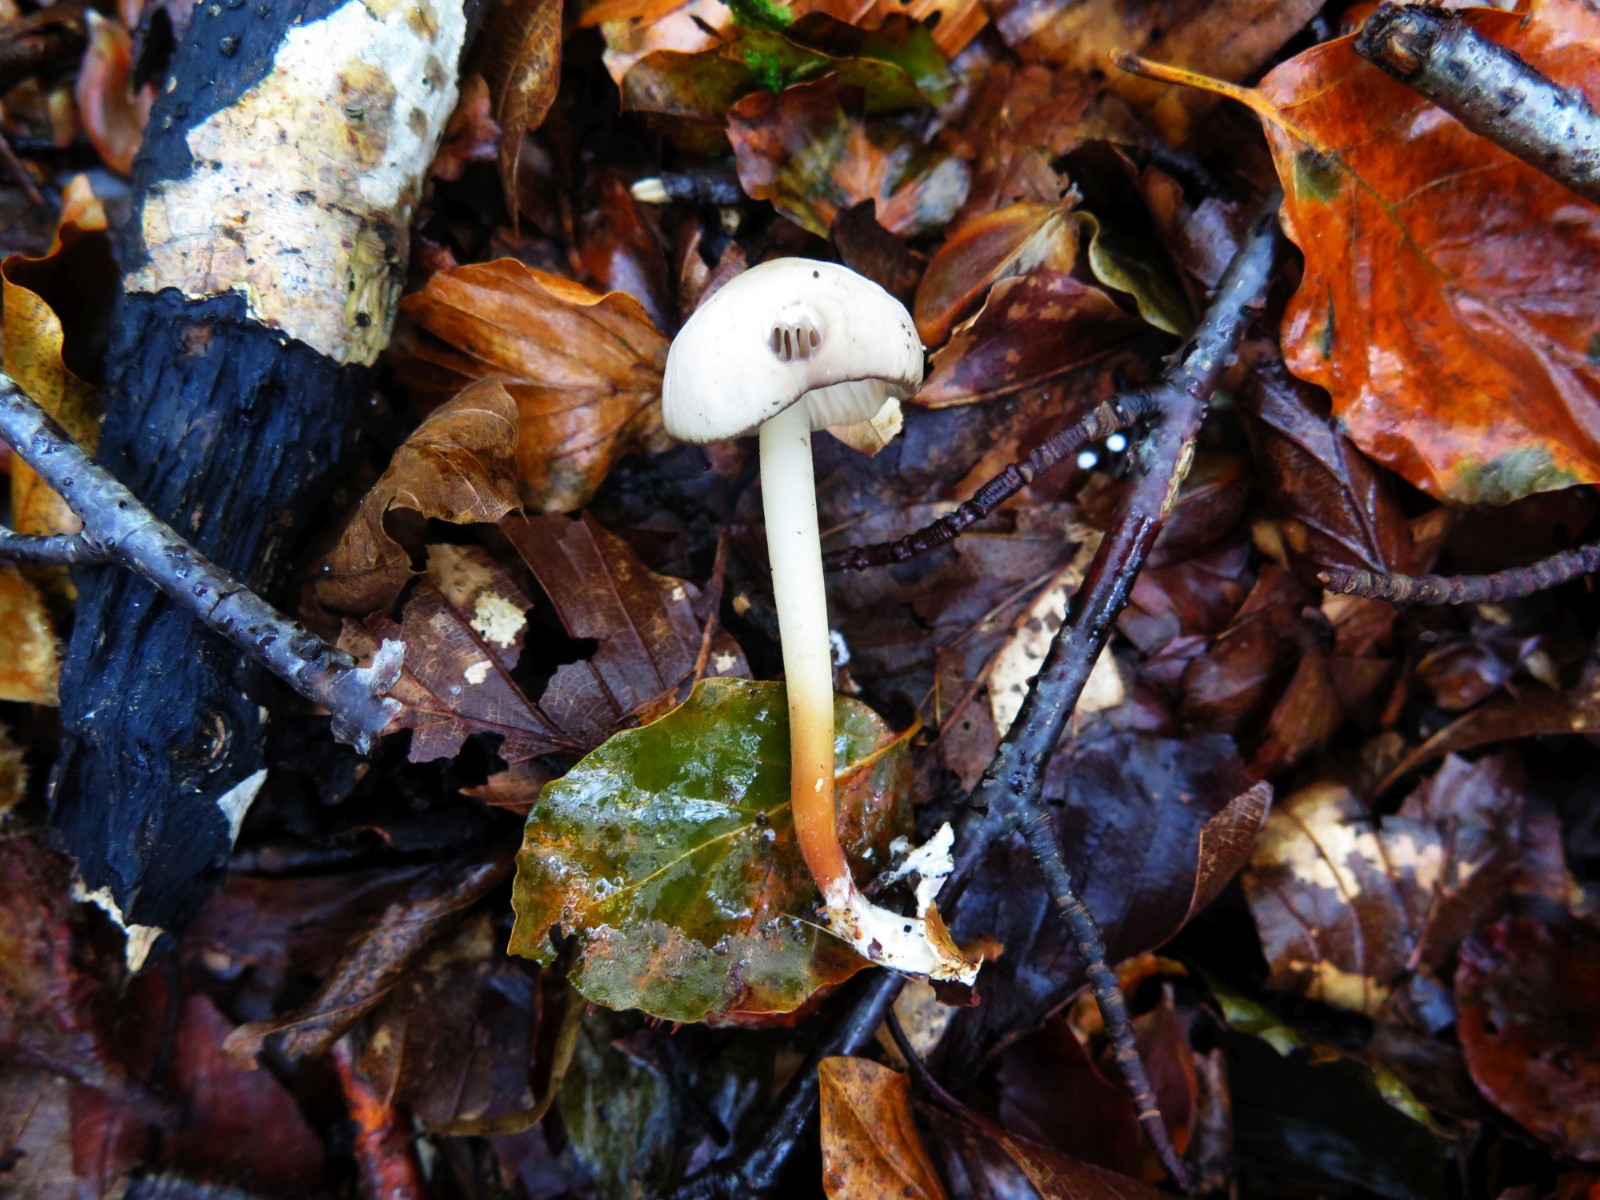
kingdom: Fungi
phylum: Basidiomycota
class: Agaricomycetes
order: Agaricales
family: Marasmiaceae
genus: Marasmius
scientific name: Marasmius wynneae
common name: hvælvet bruskhat
